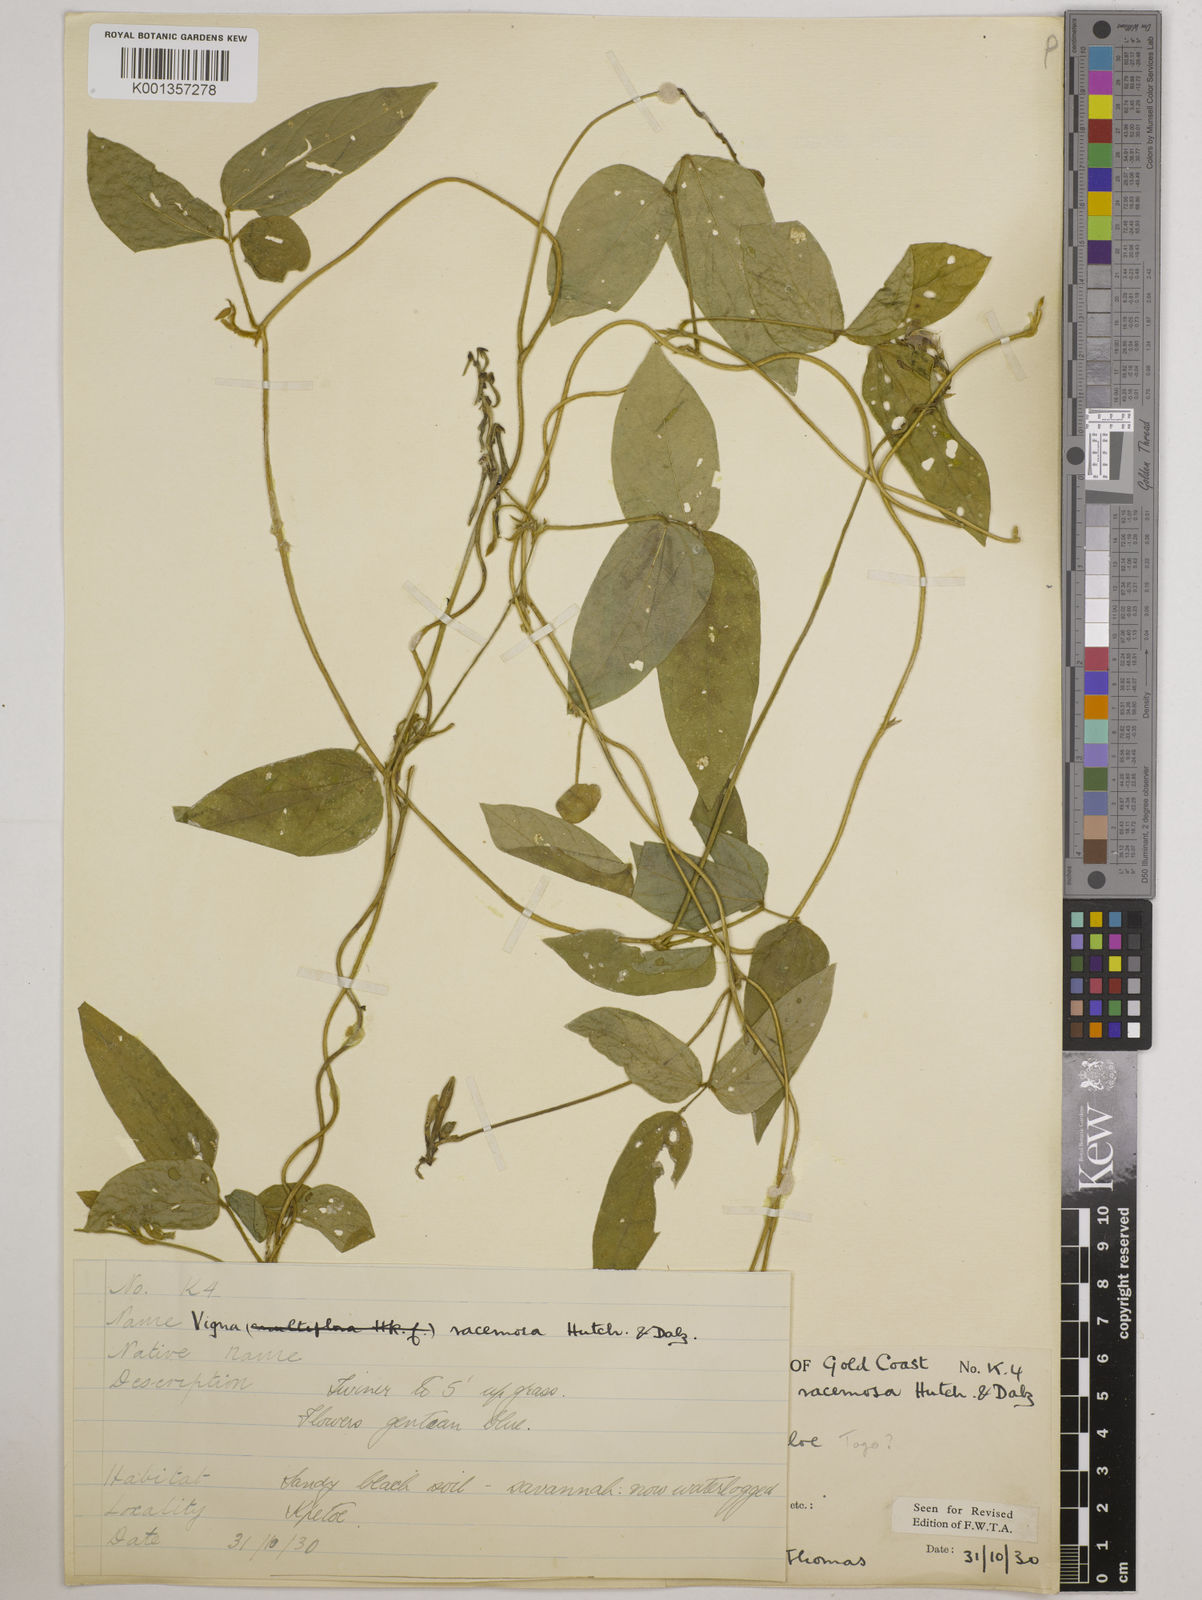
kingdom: Plantae
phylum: Tracheophyta
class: Magnoliopsida
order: Fabales
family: Fabaceae
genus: Vigna
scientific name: Vigna racemosa
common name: Beans not eaten
